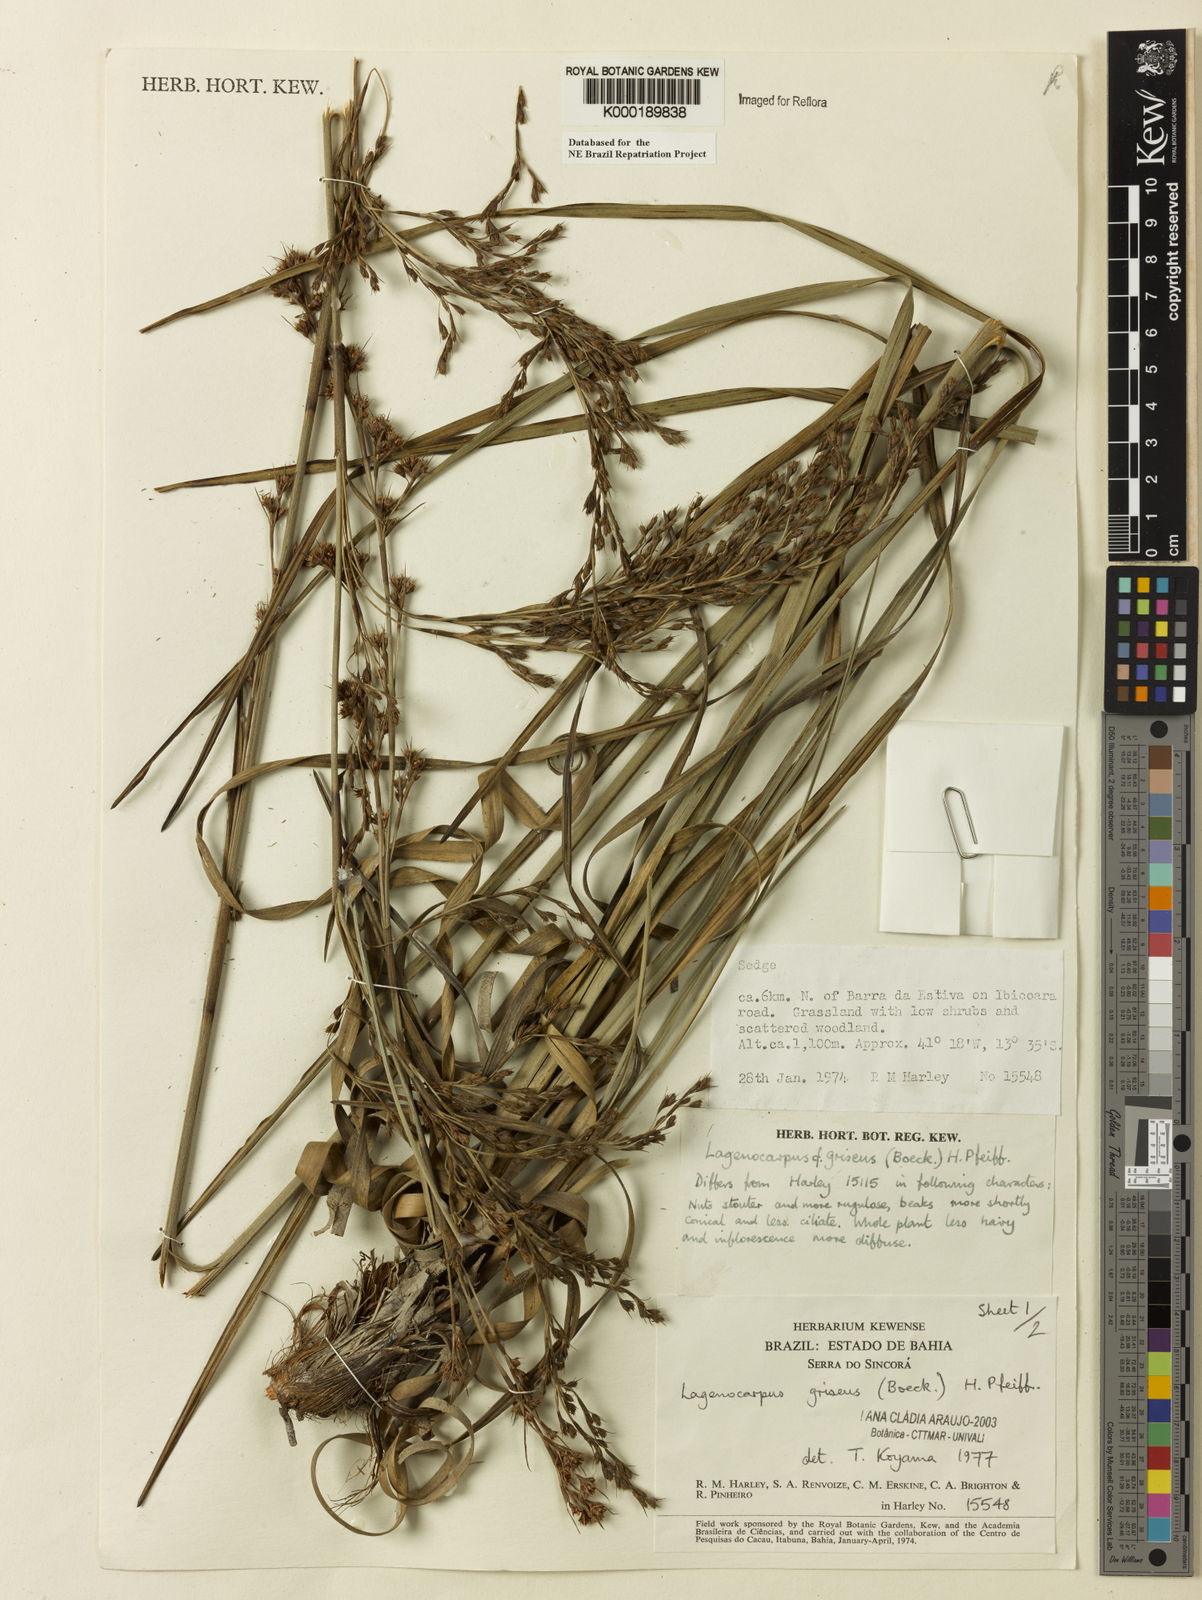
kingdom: Plantae
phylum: Tracheophyta
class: Liliopsida
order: Poales
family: Cyperaceae
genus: Lagenocarpus
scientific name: Lagenocarpus griseus
